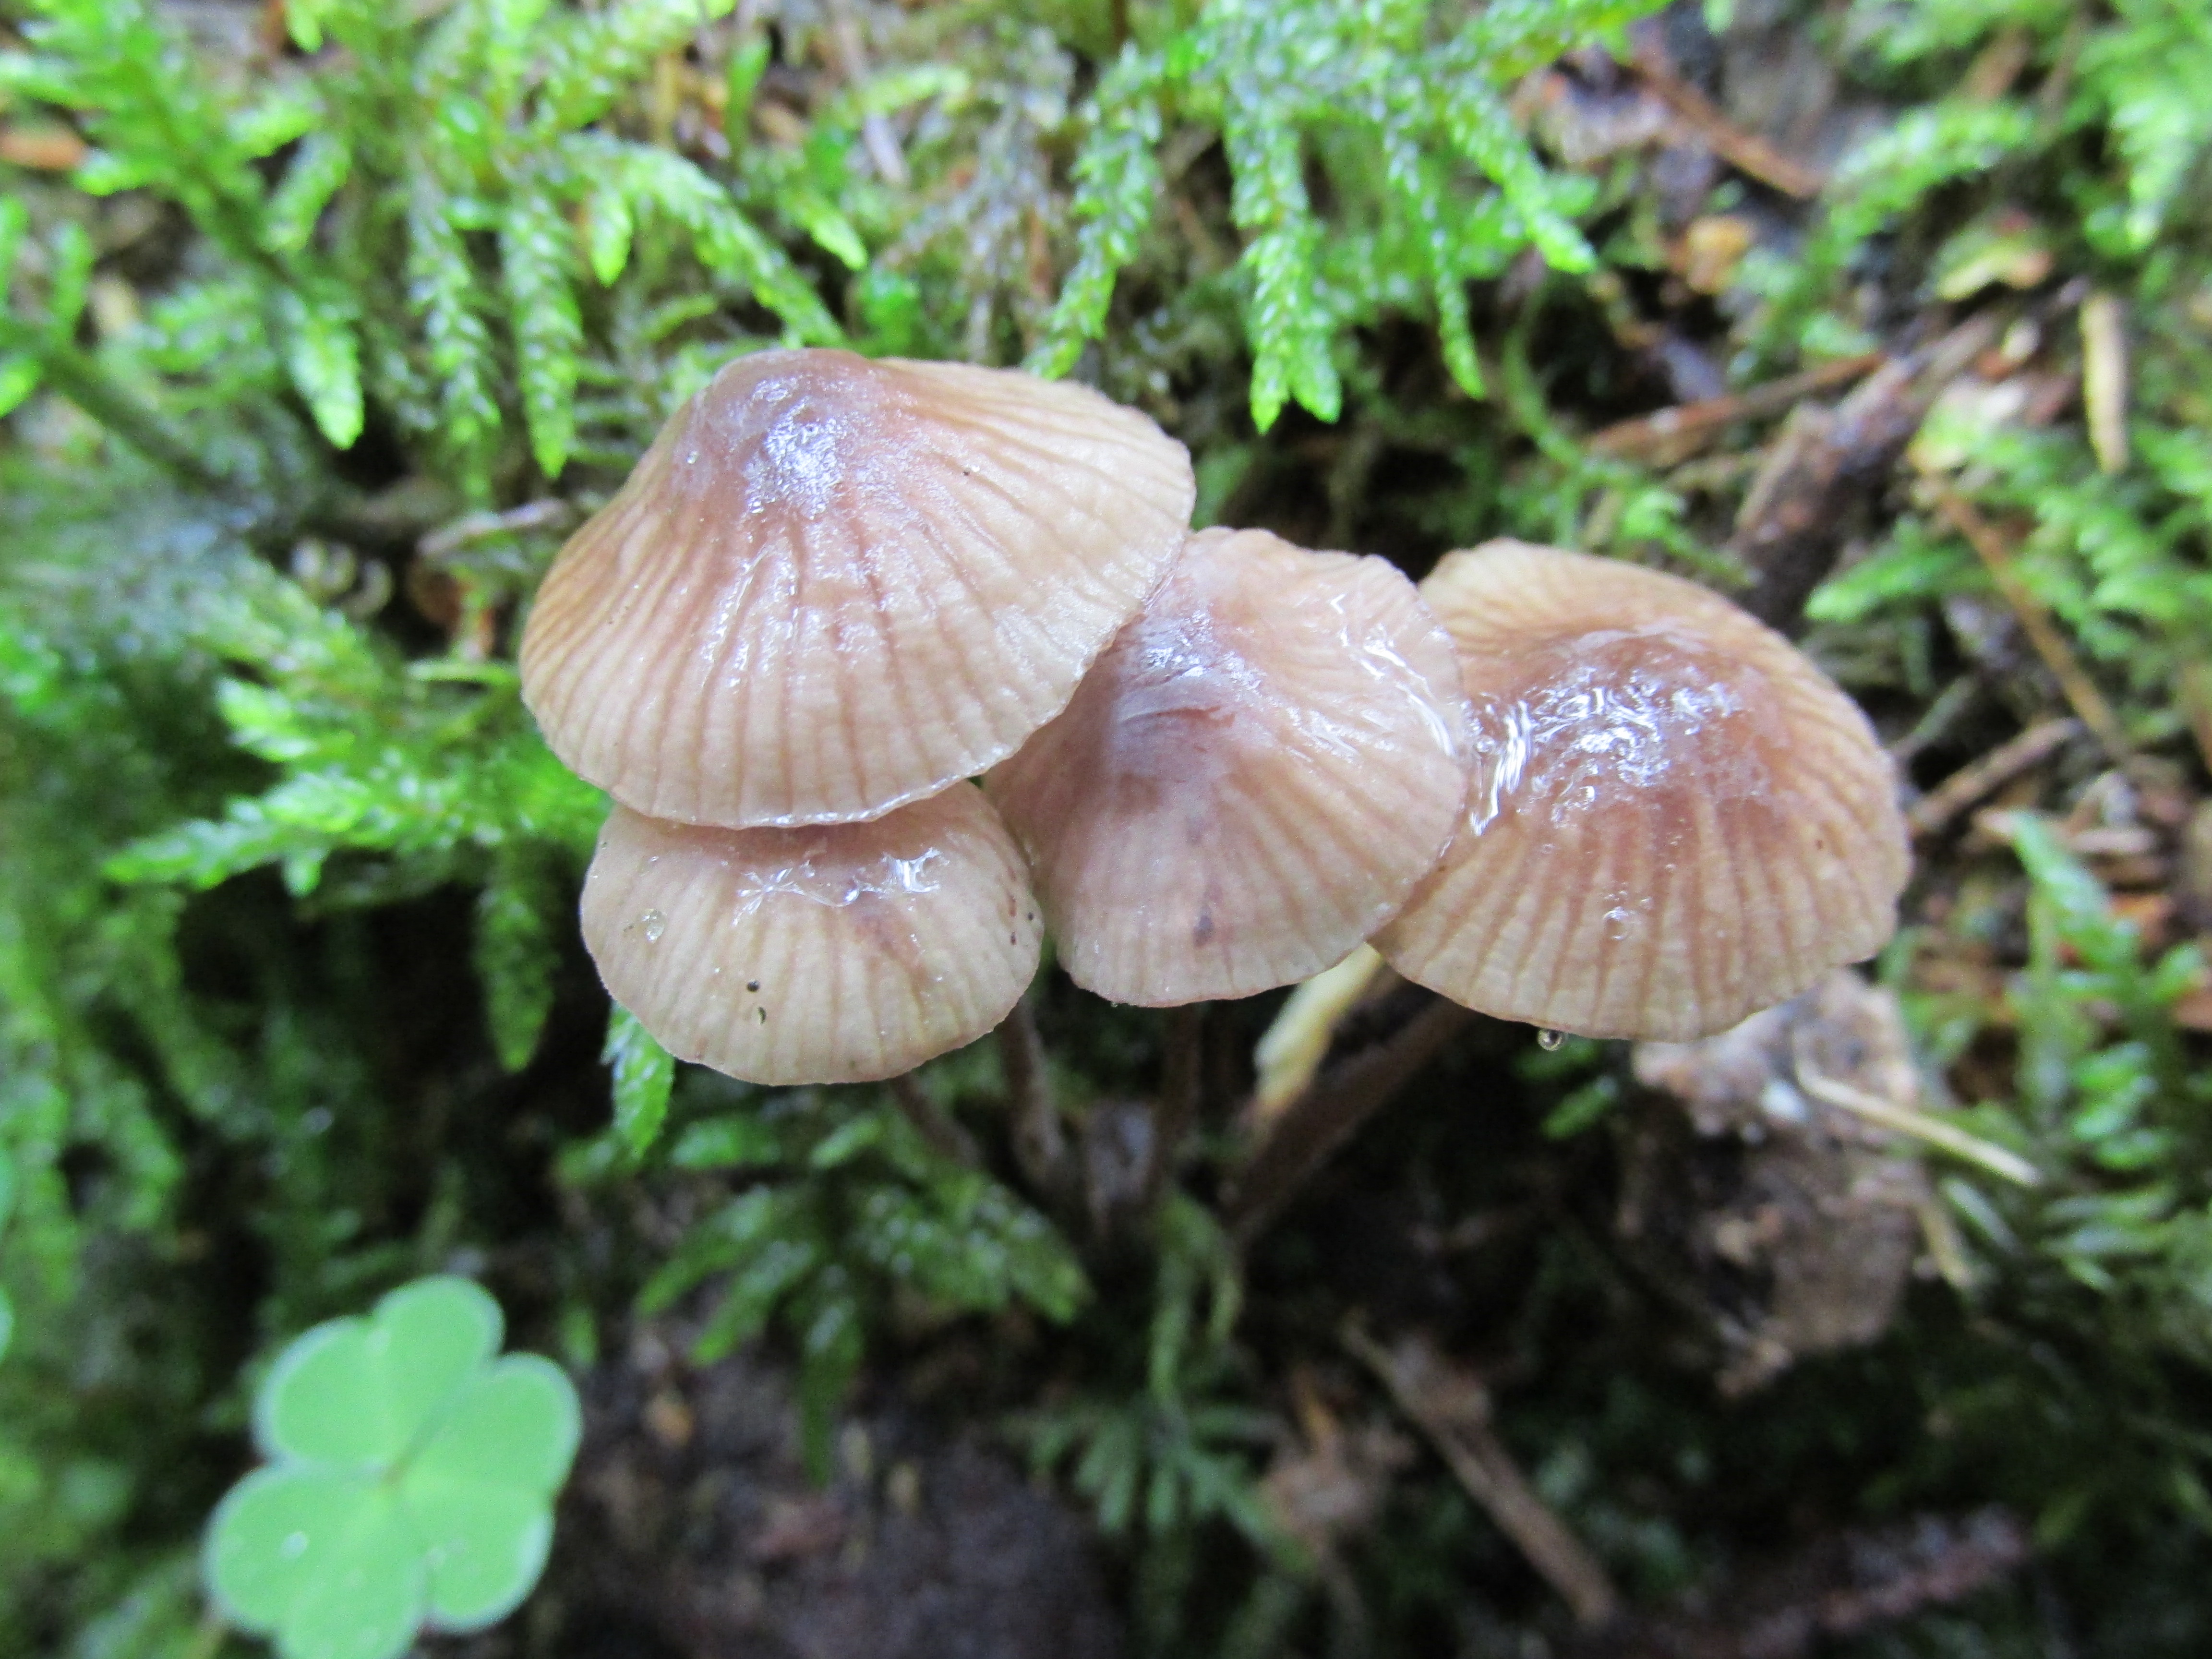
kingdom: Fungi
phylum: Basidiomycota
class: Agaricomycetes
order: Agaricales
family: Mycenaceae
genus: Mycena
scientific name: Mycena rubromarginata
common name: Red edge bonnet
